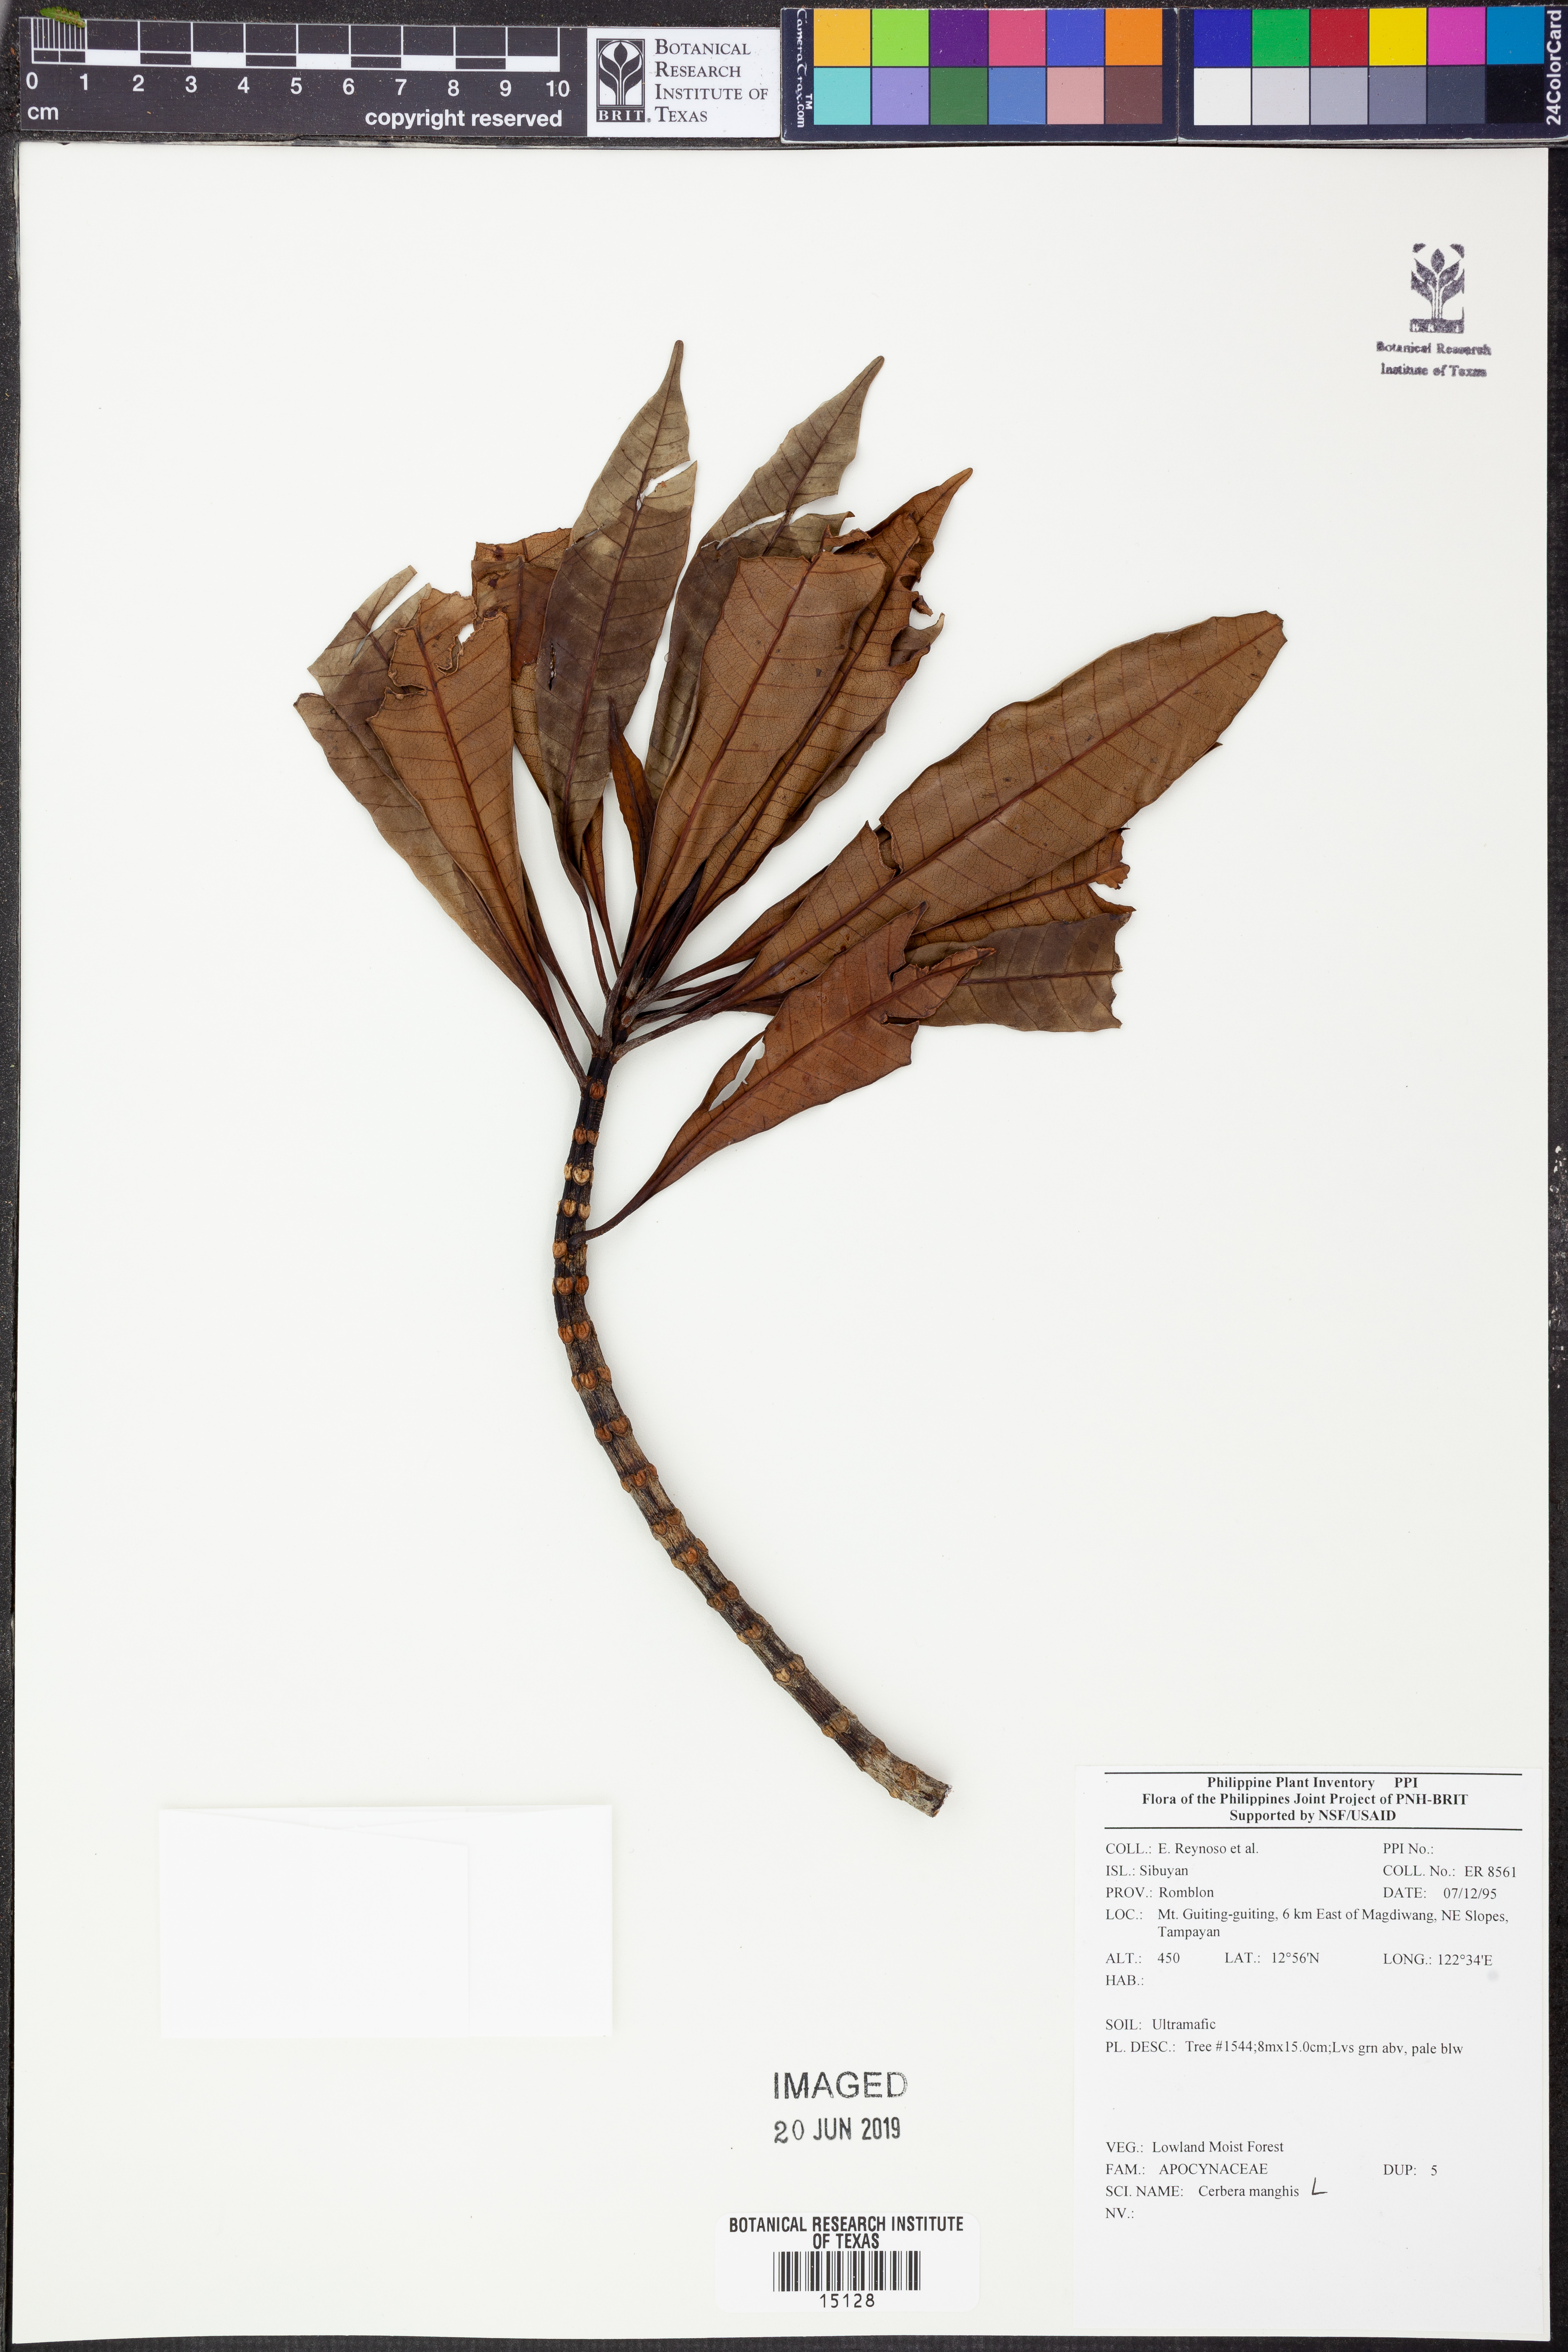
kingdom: Plantae
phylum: Tracheophyta
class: Magnoliopsida
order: Gentianales
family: Apocynaceae
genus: Cerbera
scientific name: Cerbera manghas
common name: Reva
